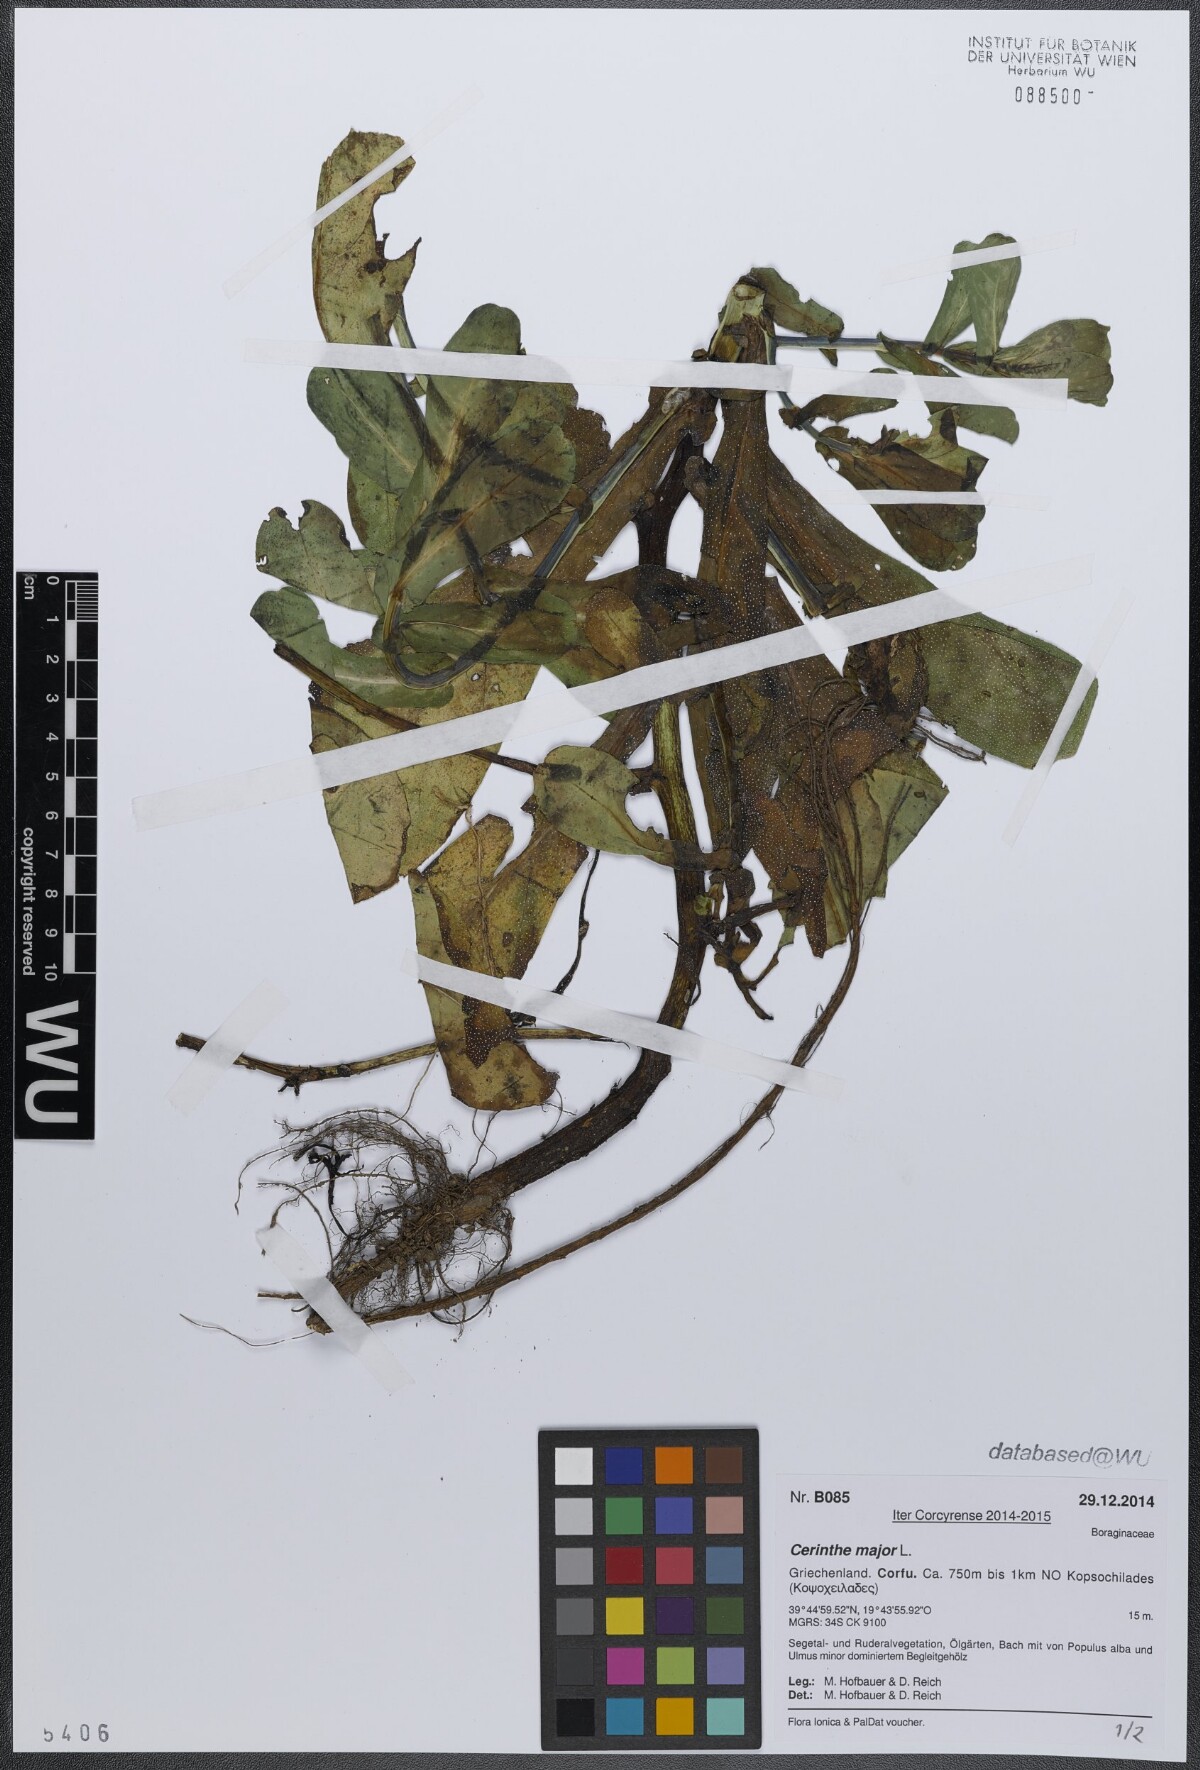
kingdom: Plantae
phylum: Tracheophyta
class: Magnoliopsida
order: Boraginales
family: Boraginaceae
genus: Cerinthe
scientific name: Cerinthe major
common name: Greater honeywort
